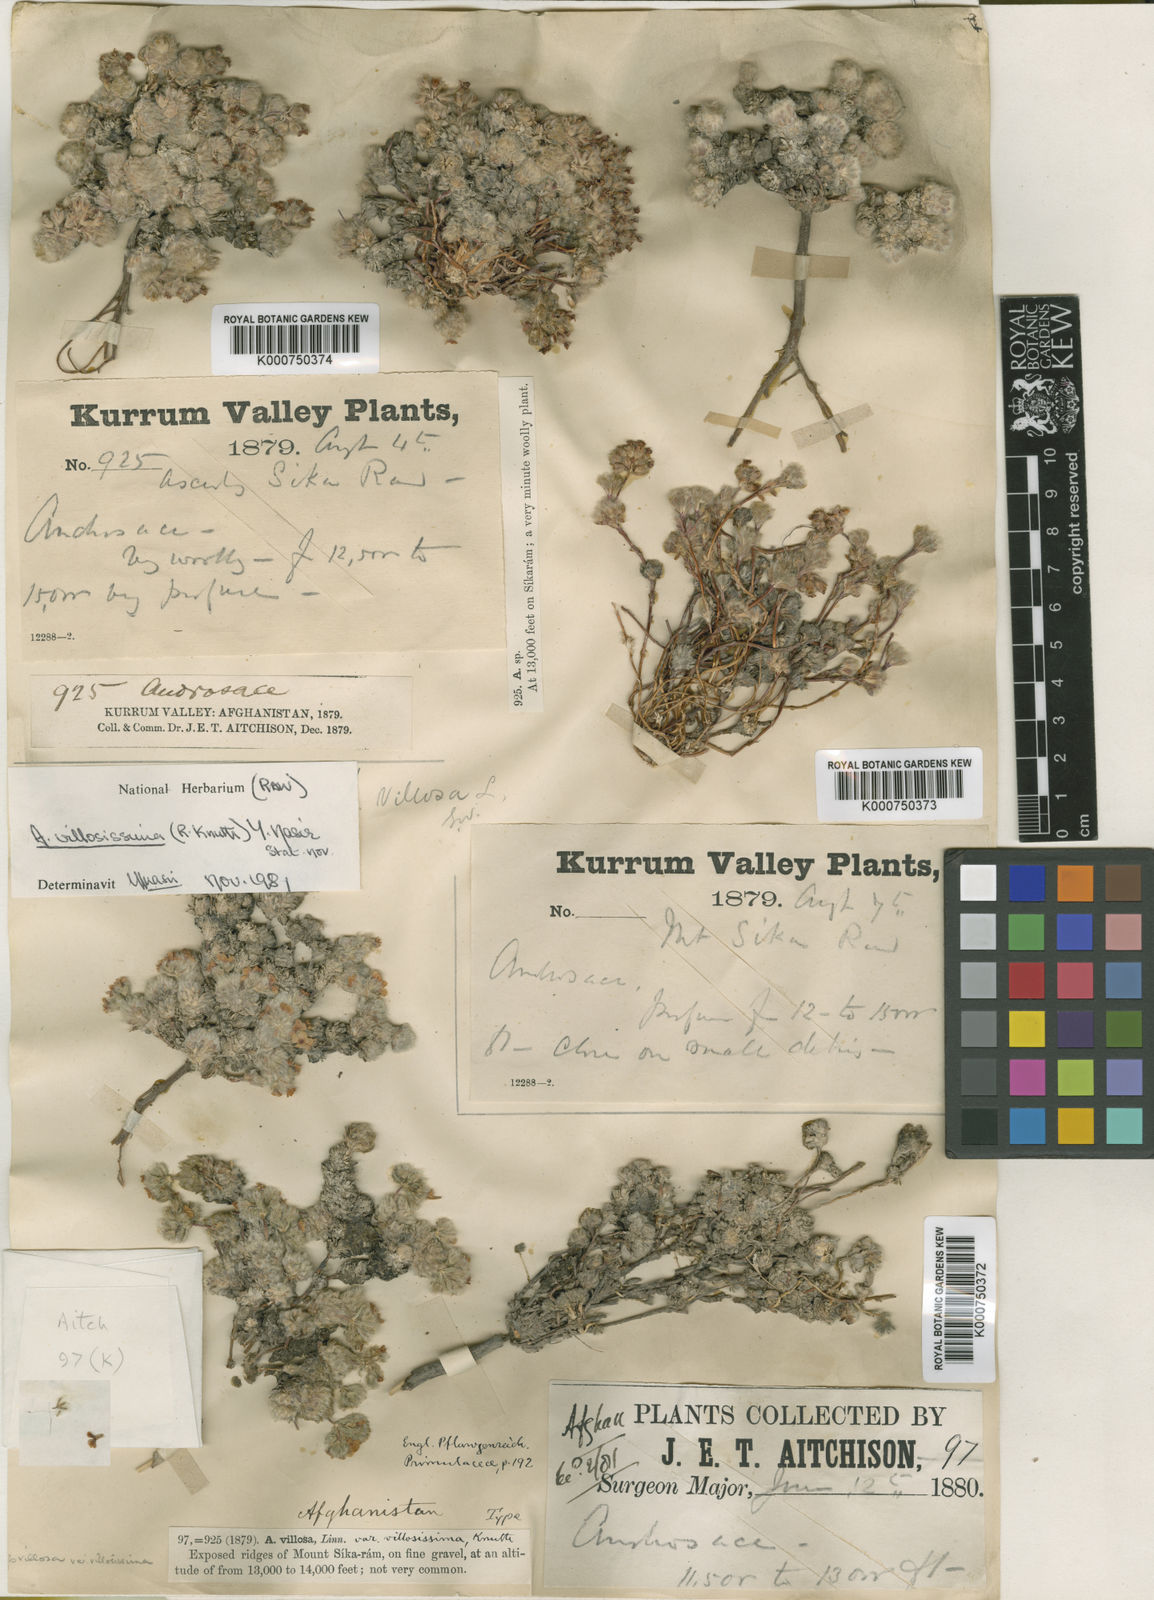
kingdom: Plantae
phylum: Tracheophyta
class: Magnoliopsida
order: Ericales
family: Primulaceae
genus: Androsace
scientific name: Androsace jacquemontii
